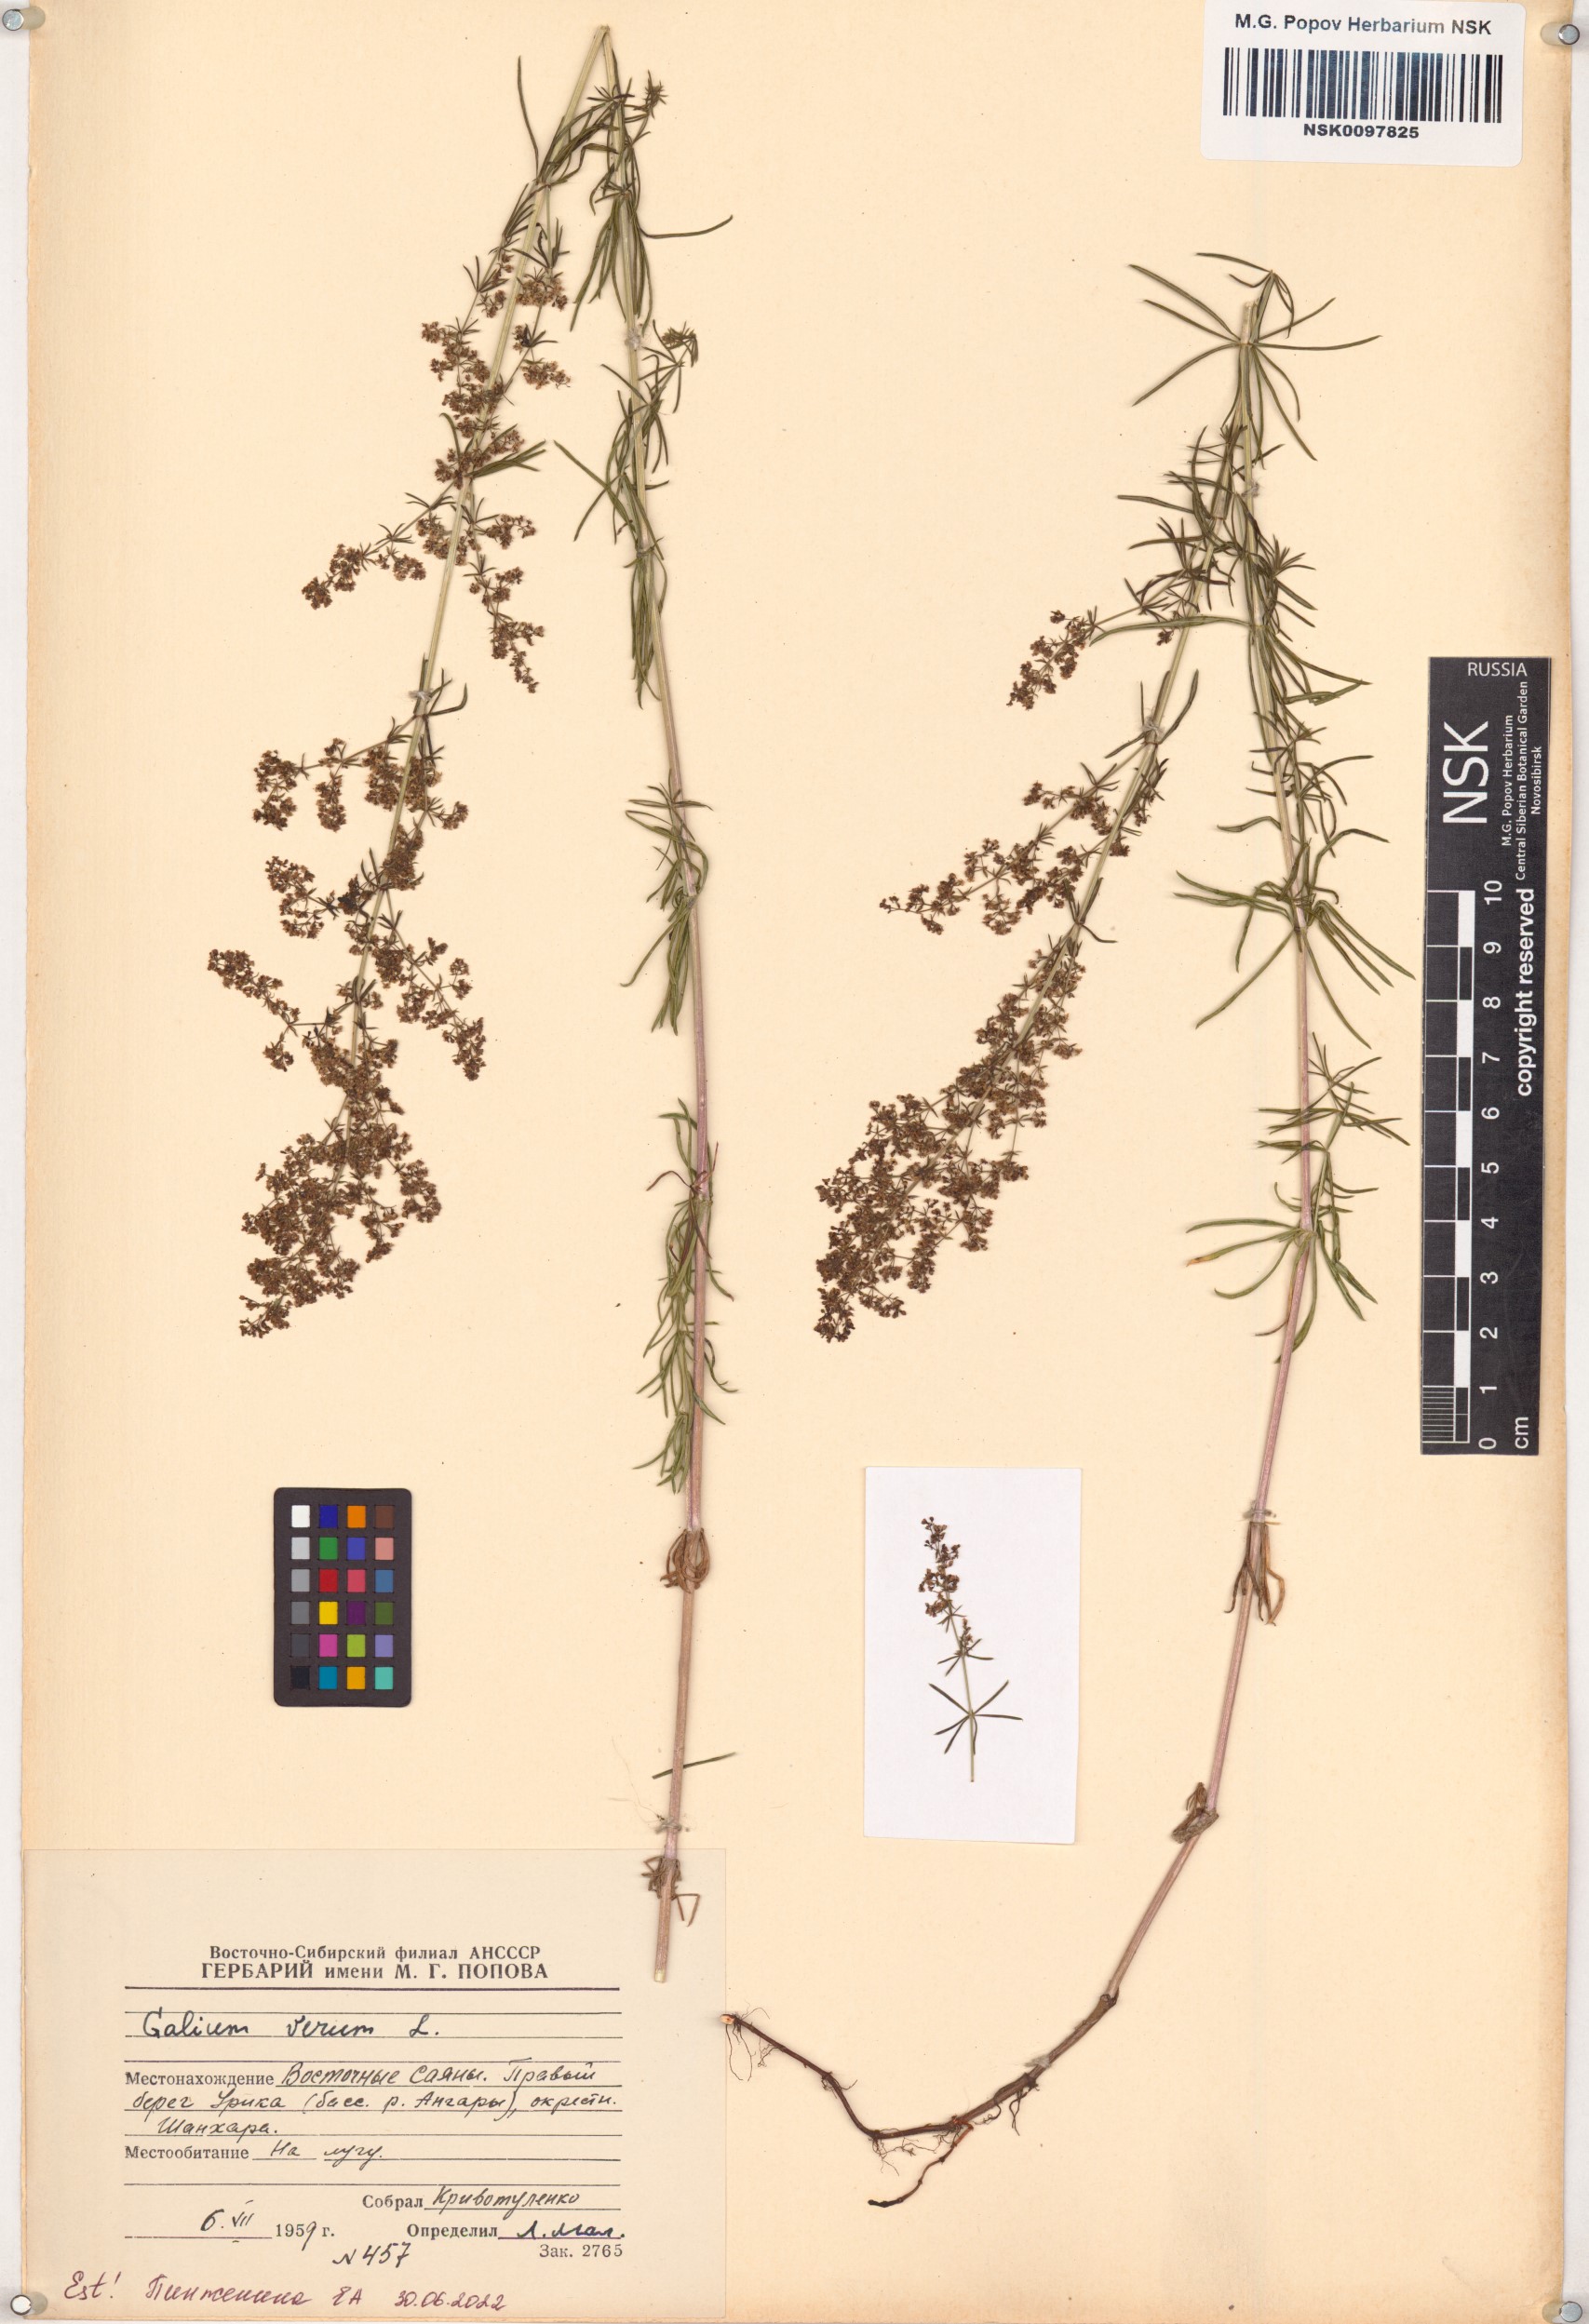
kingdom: Plantae
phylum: Tracheophyta
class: Magnoliopsida
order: Gentianales
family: Rubiaceae
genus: Galium
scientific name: Galium verum
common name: Lady's bedstraw
